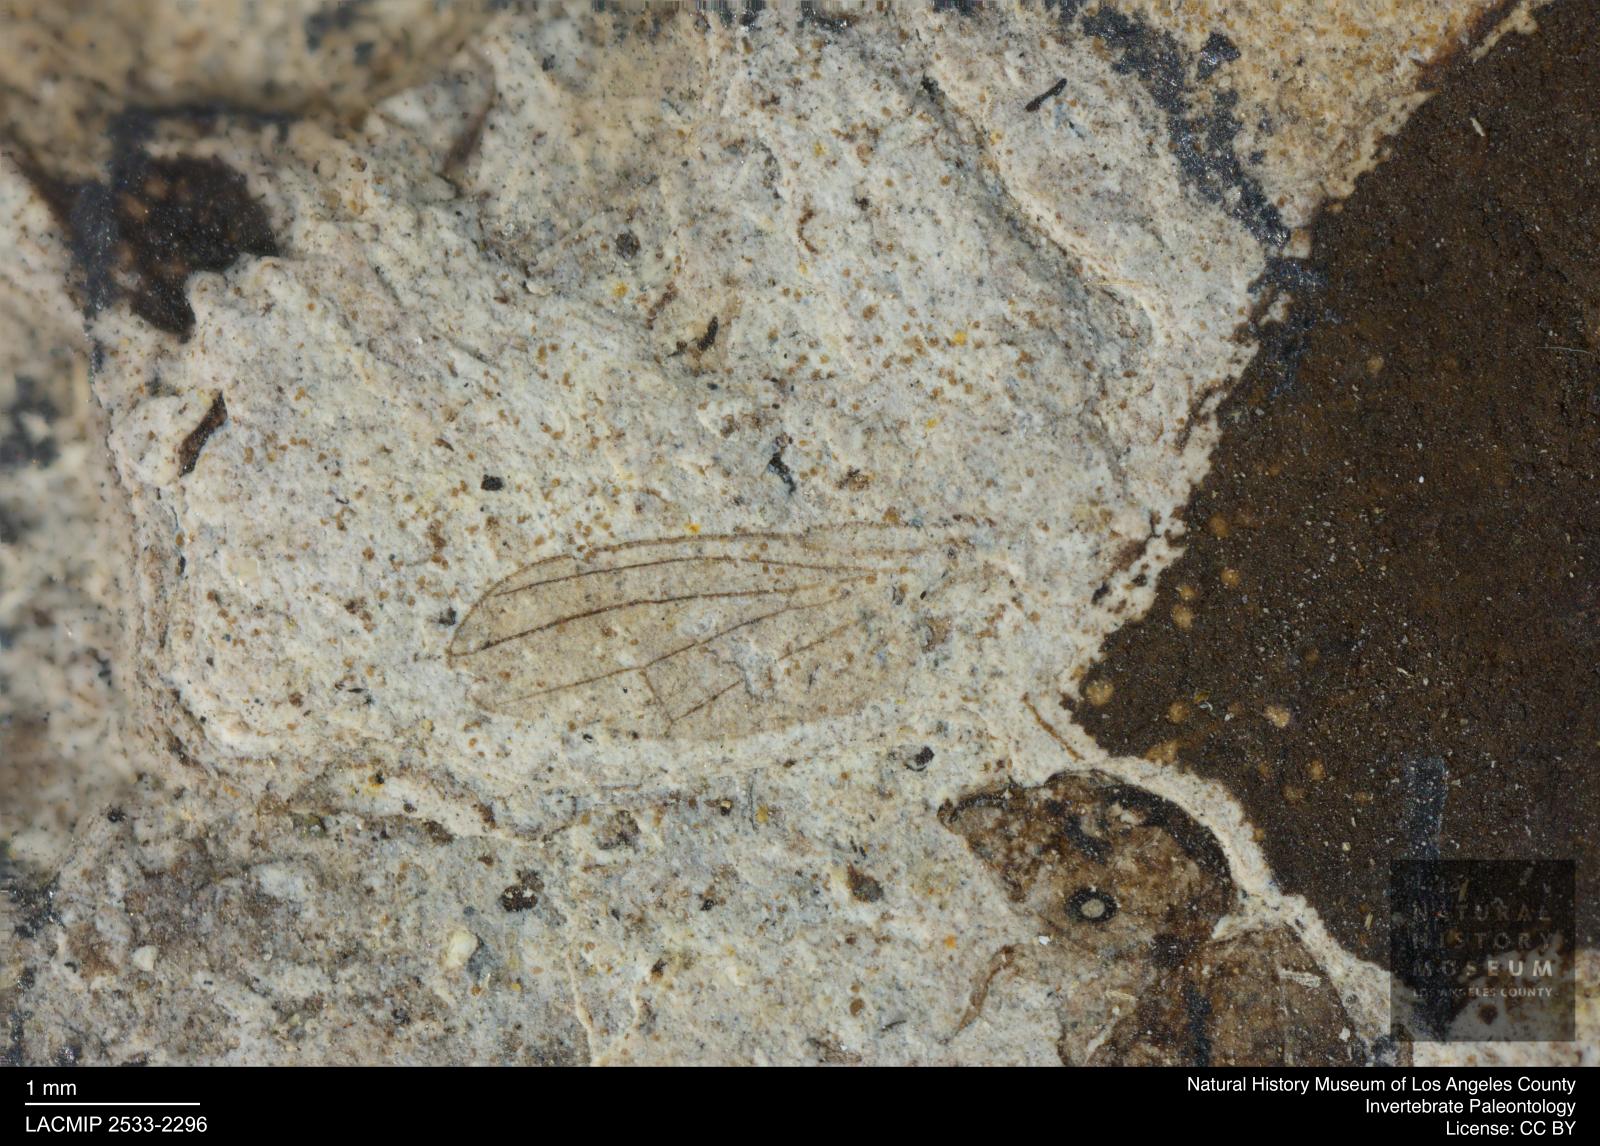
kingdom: Animalia
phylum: Arthropoda
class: Insecta
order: Diptera
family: Heleomyzidae
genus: Heleomyza
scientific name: Heleomyza Leria bauckhorni
